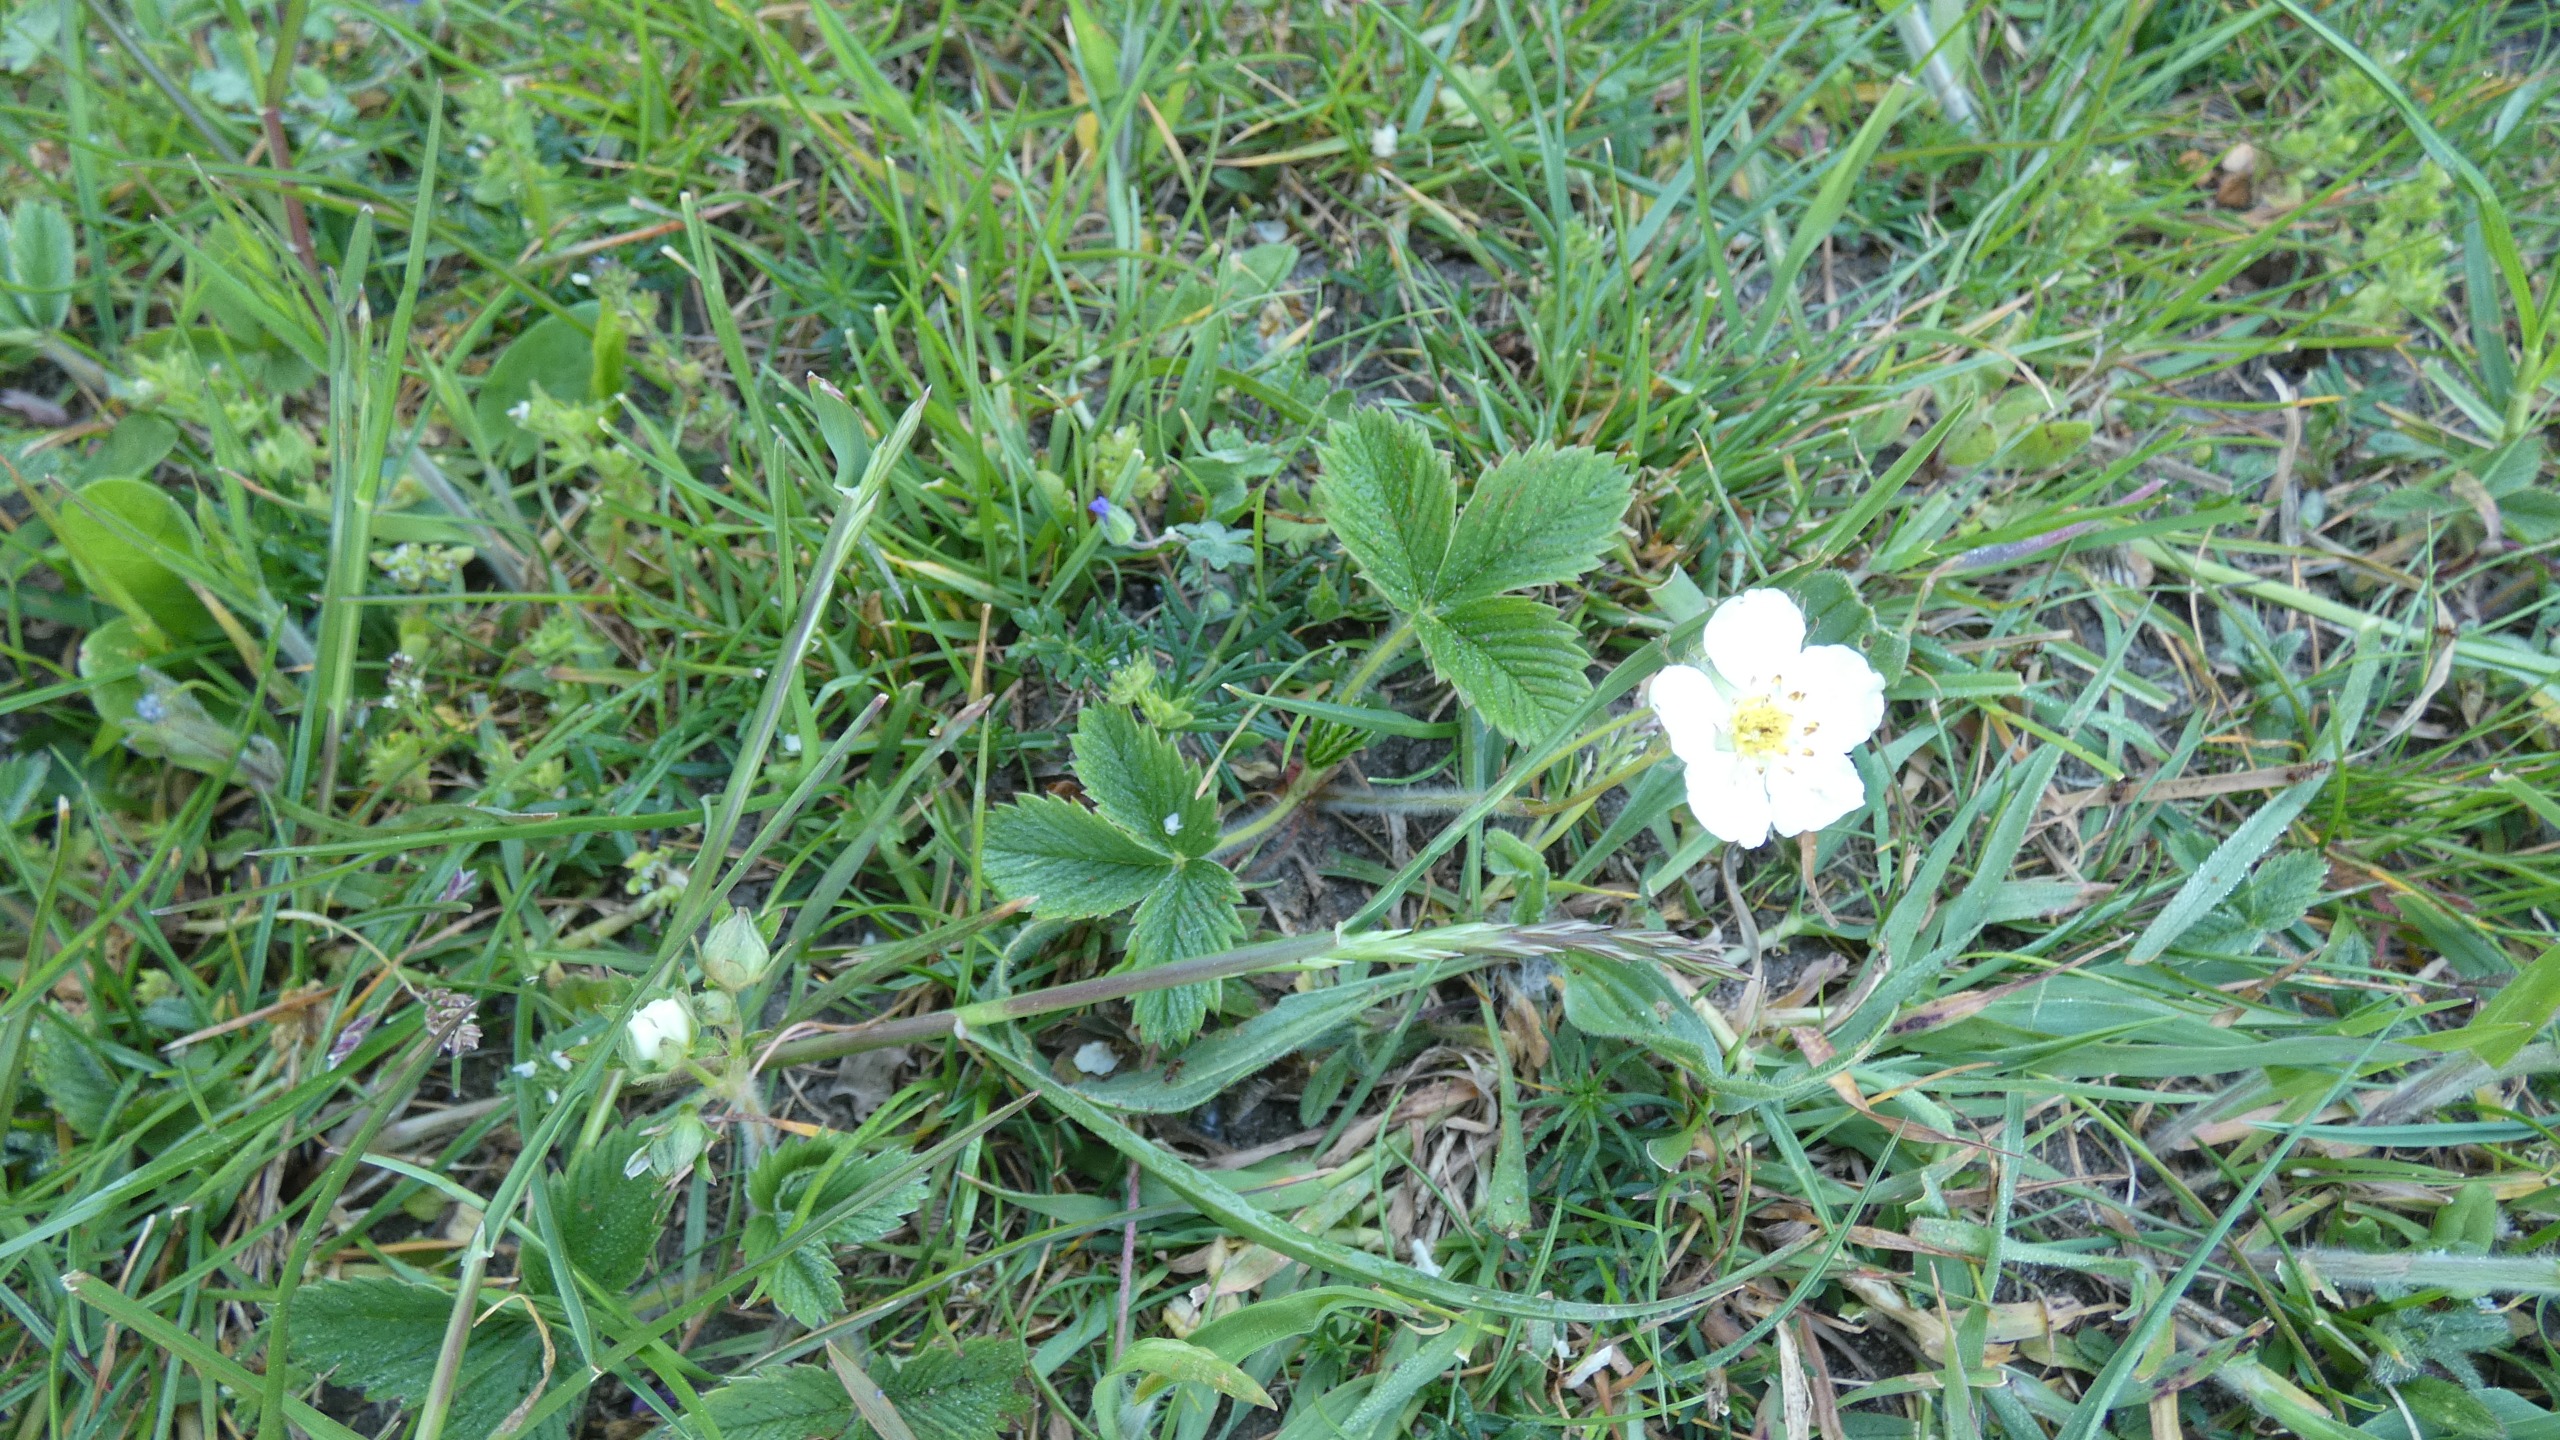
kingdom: Plantae
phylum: Tracheophyta
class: Magnoliopsida
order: Rosales
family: Rosaceae
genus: Fragaria
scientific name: Fragaria vesca
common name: Skov-jordbær
